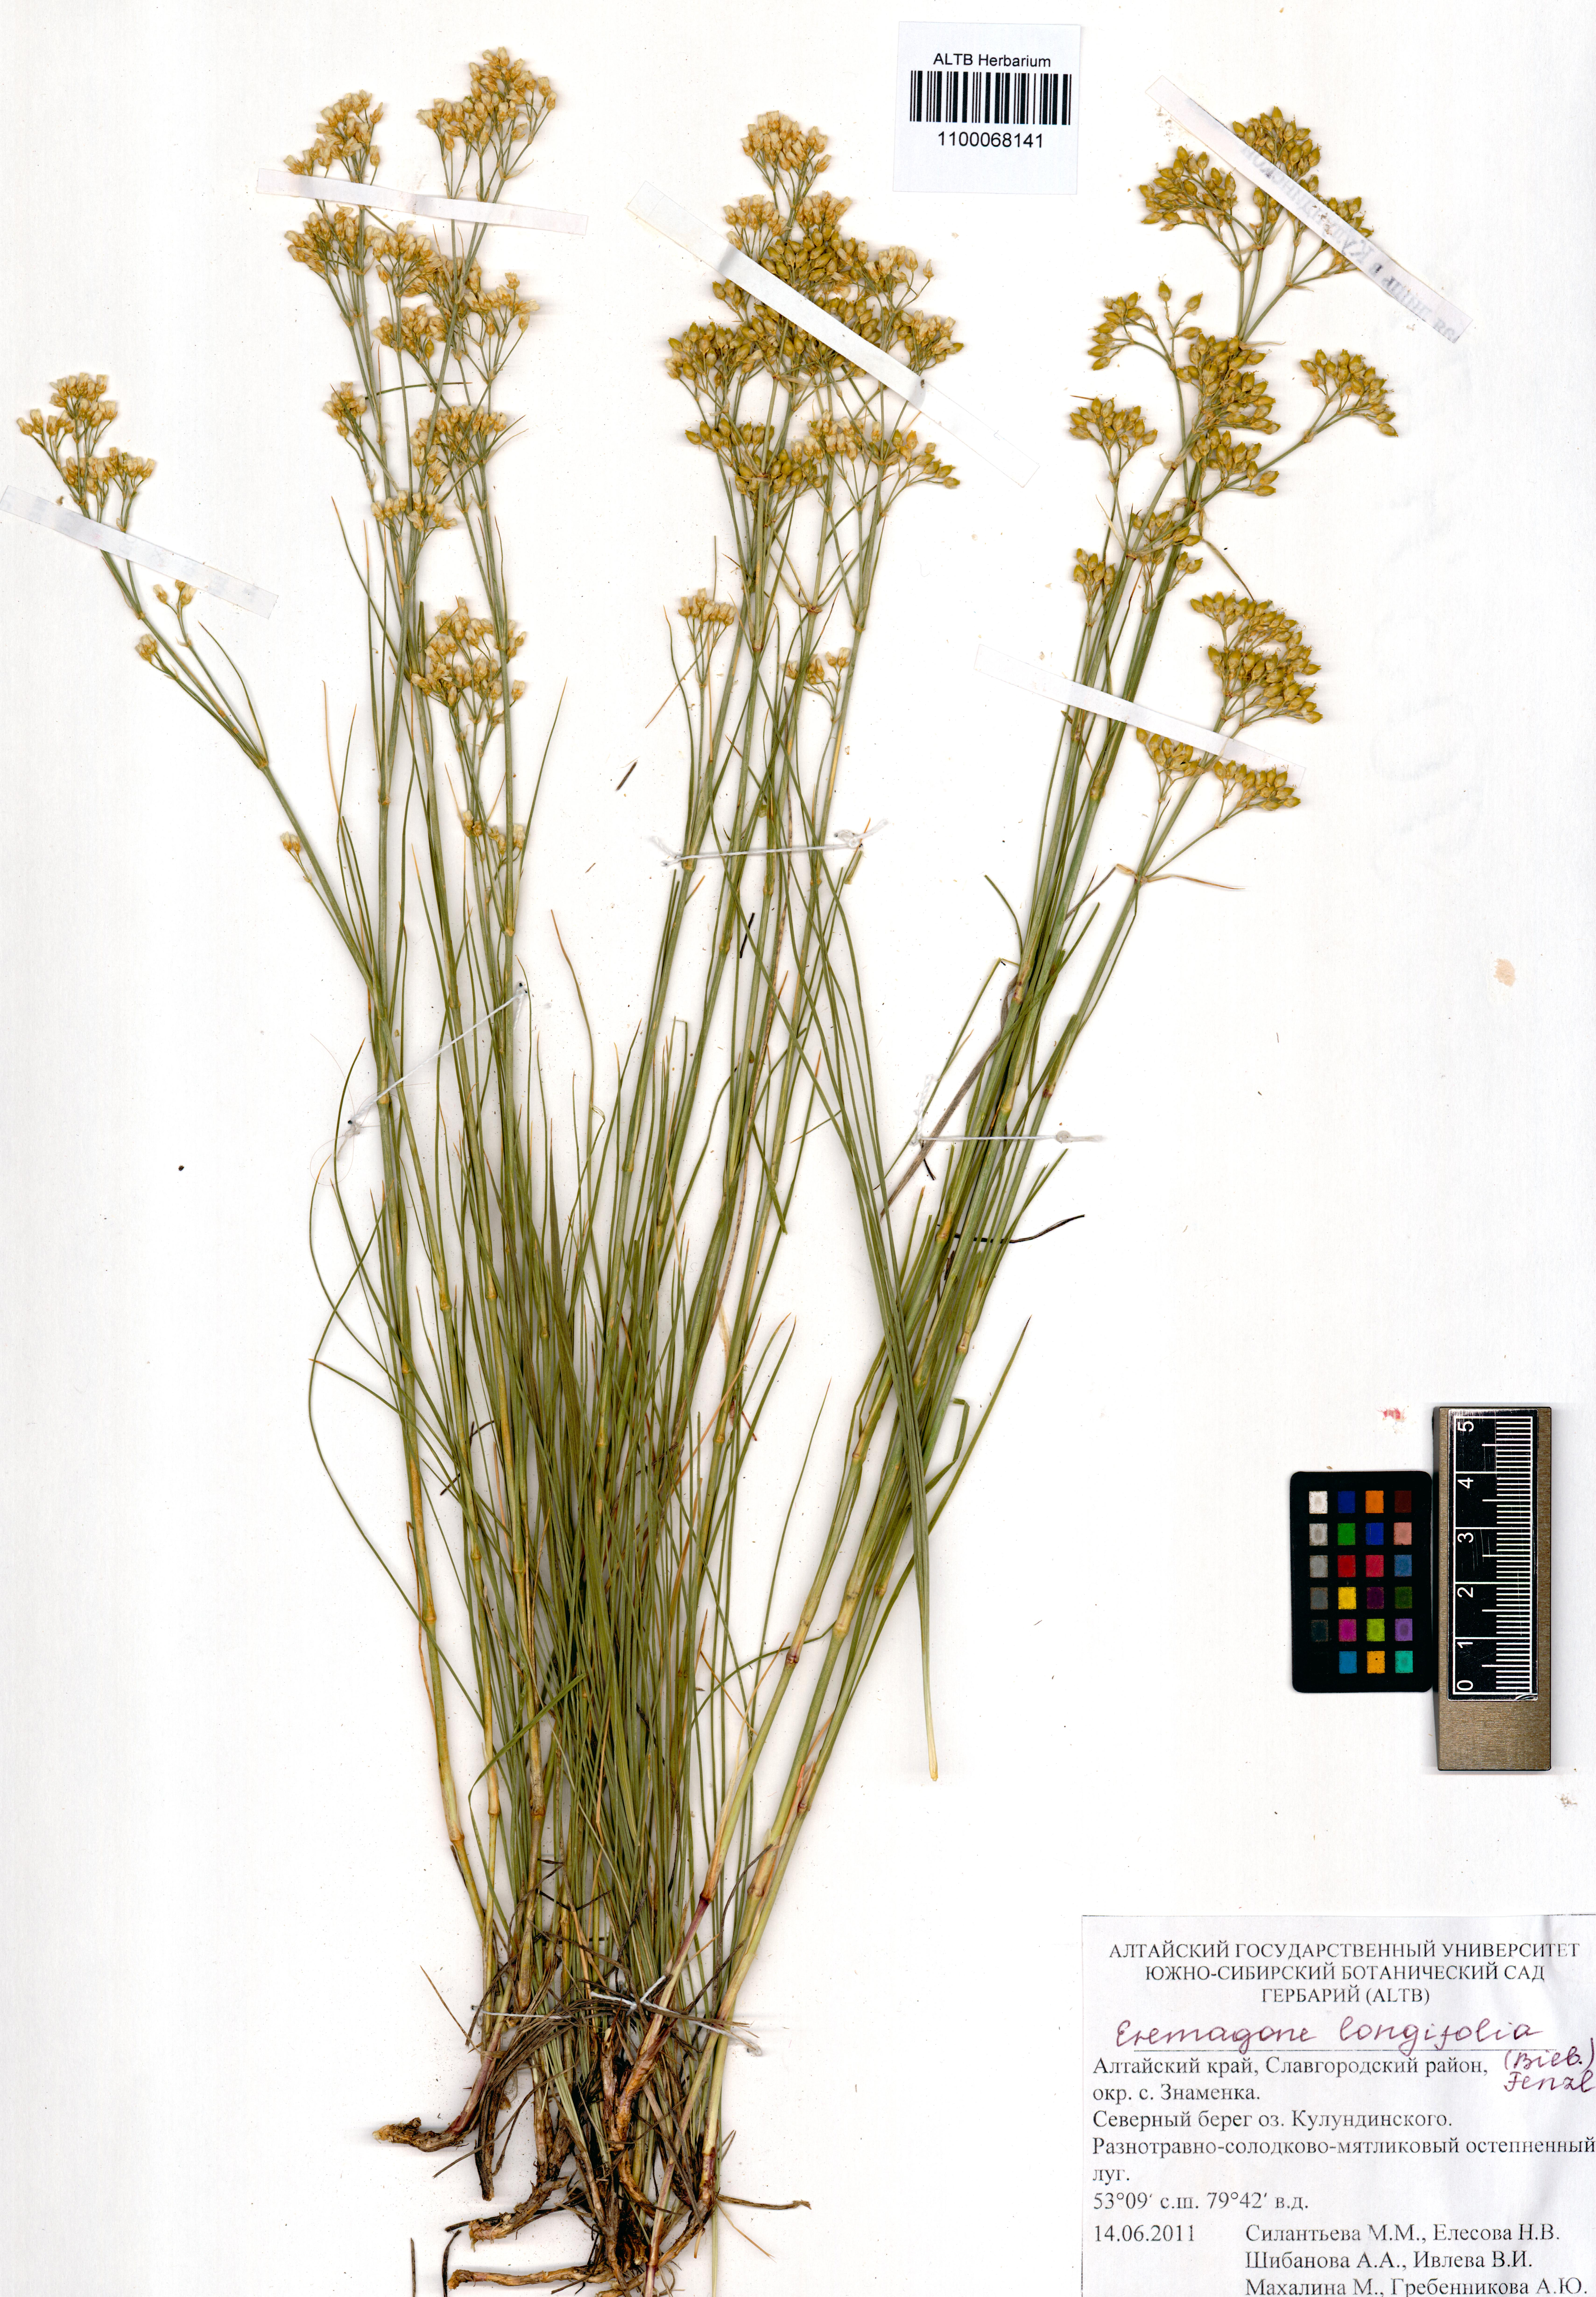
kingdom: Plantae
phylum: Tracheophyta
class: Magnoliopsida
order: Caryophyllales
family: Caryophyllaceae
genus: Eremogone
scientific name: Eremogone longifolia
